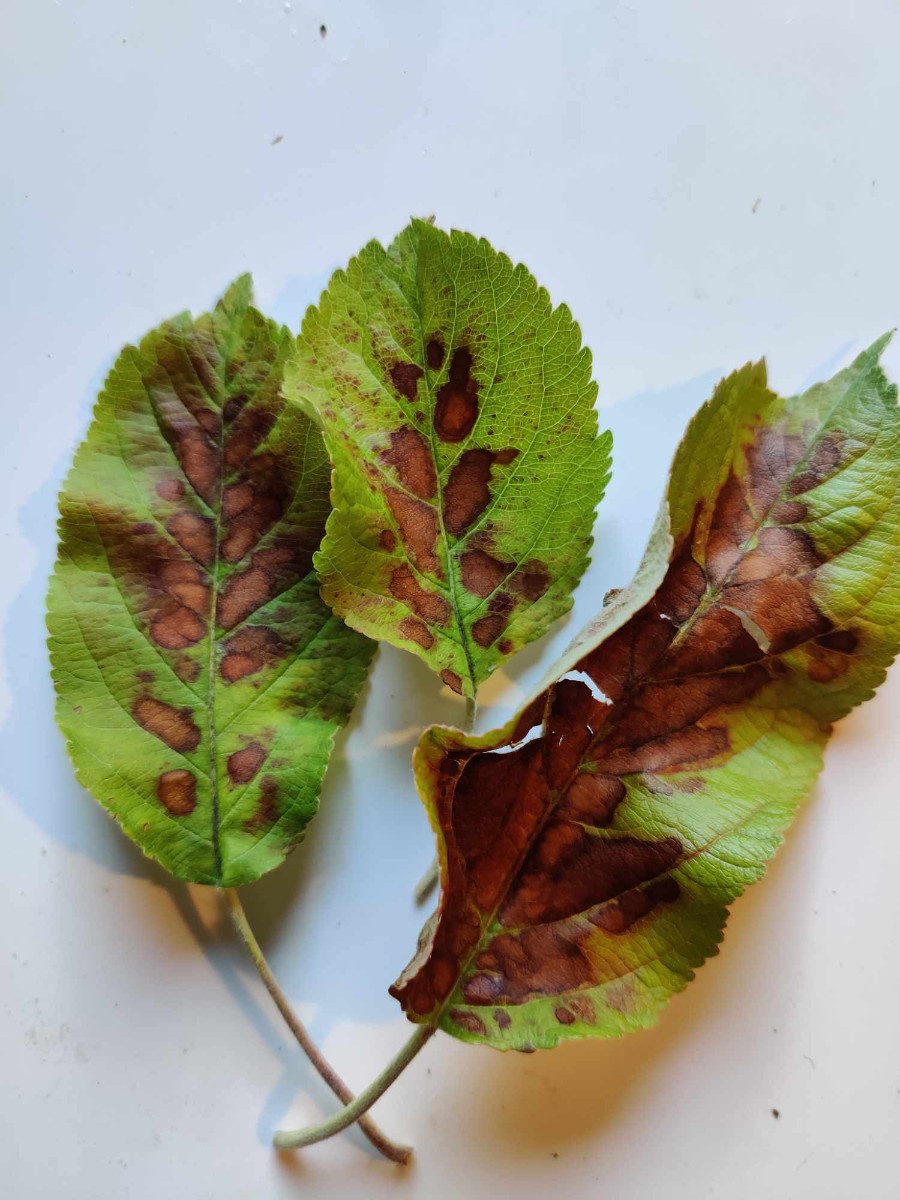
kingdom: Fungi
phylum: Ascomycota
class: Dothideomycetes
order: Venturiales
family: Venturiaceae
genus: Venturia
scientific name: Venturia inaequalis
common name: Apple scab
